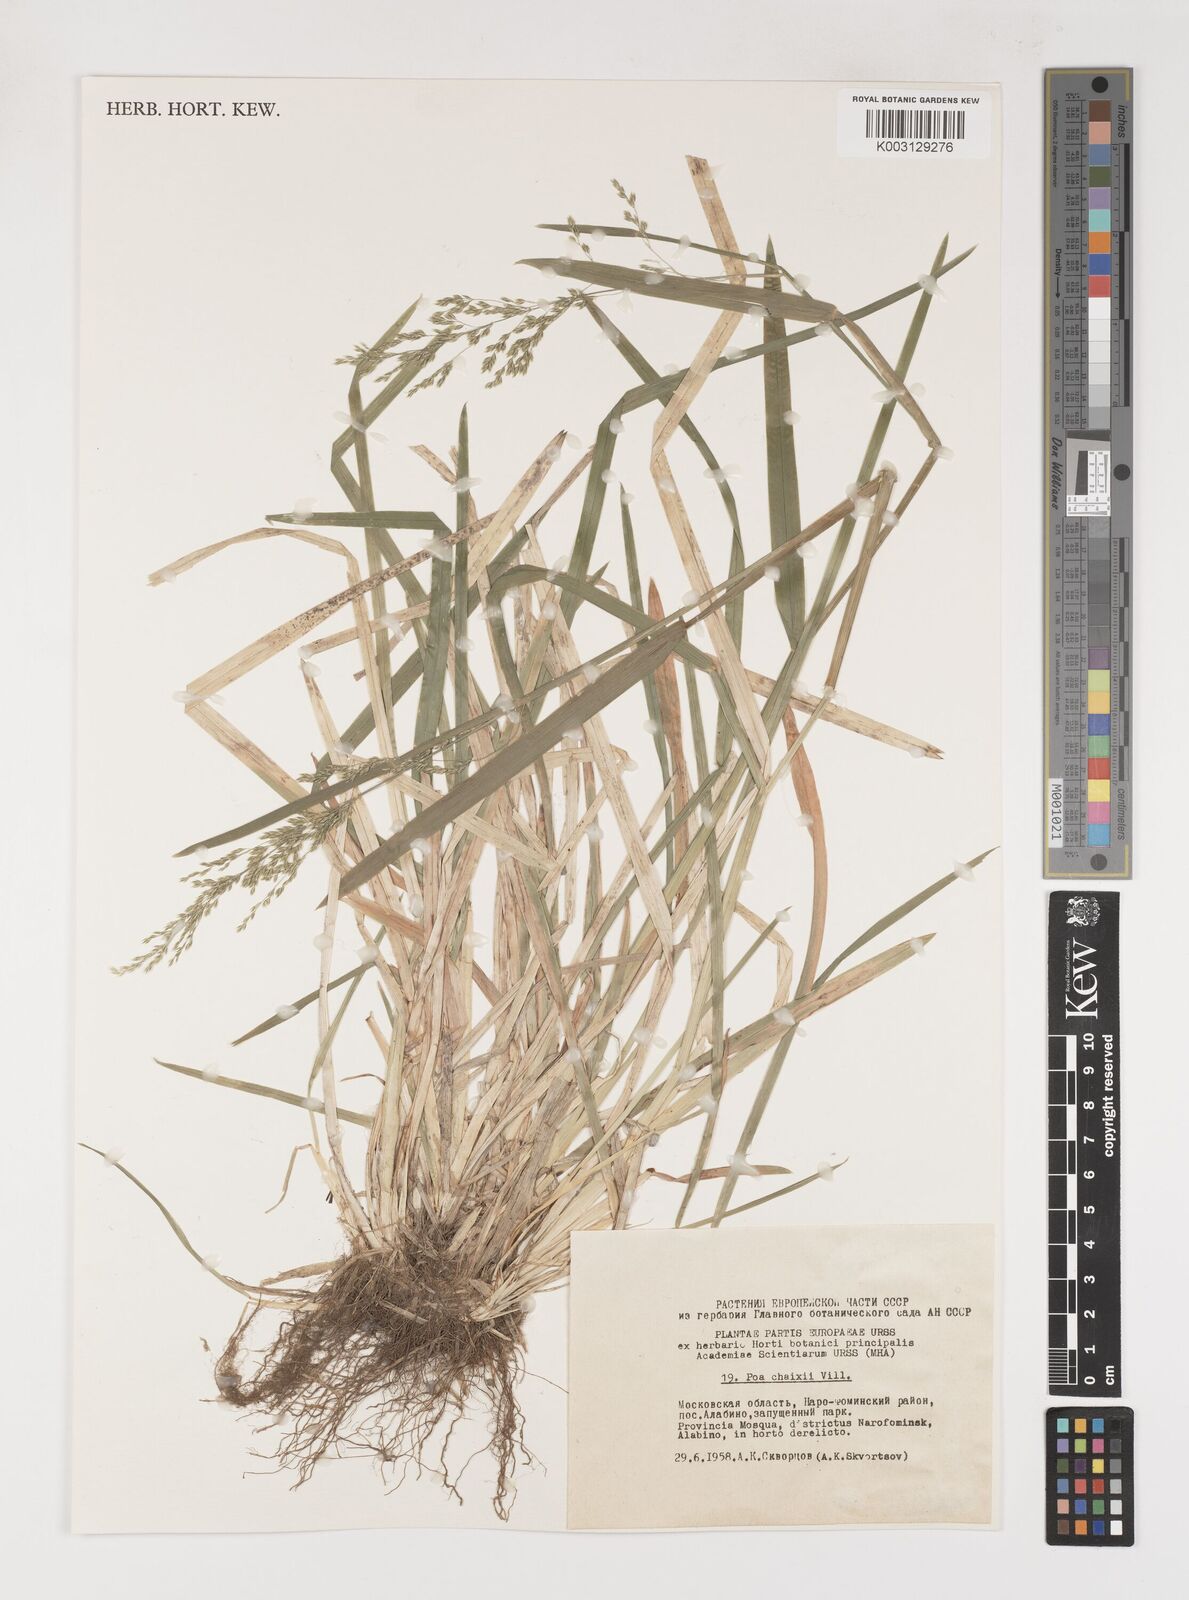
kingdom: Plantae
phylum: Tracheophyta
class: Liliopsida
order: Poales
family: Poaceae
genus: Poa
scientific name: Poa chaixii
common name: Broad-leaved meadow-grass
